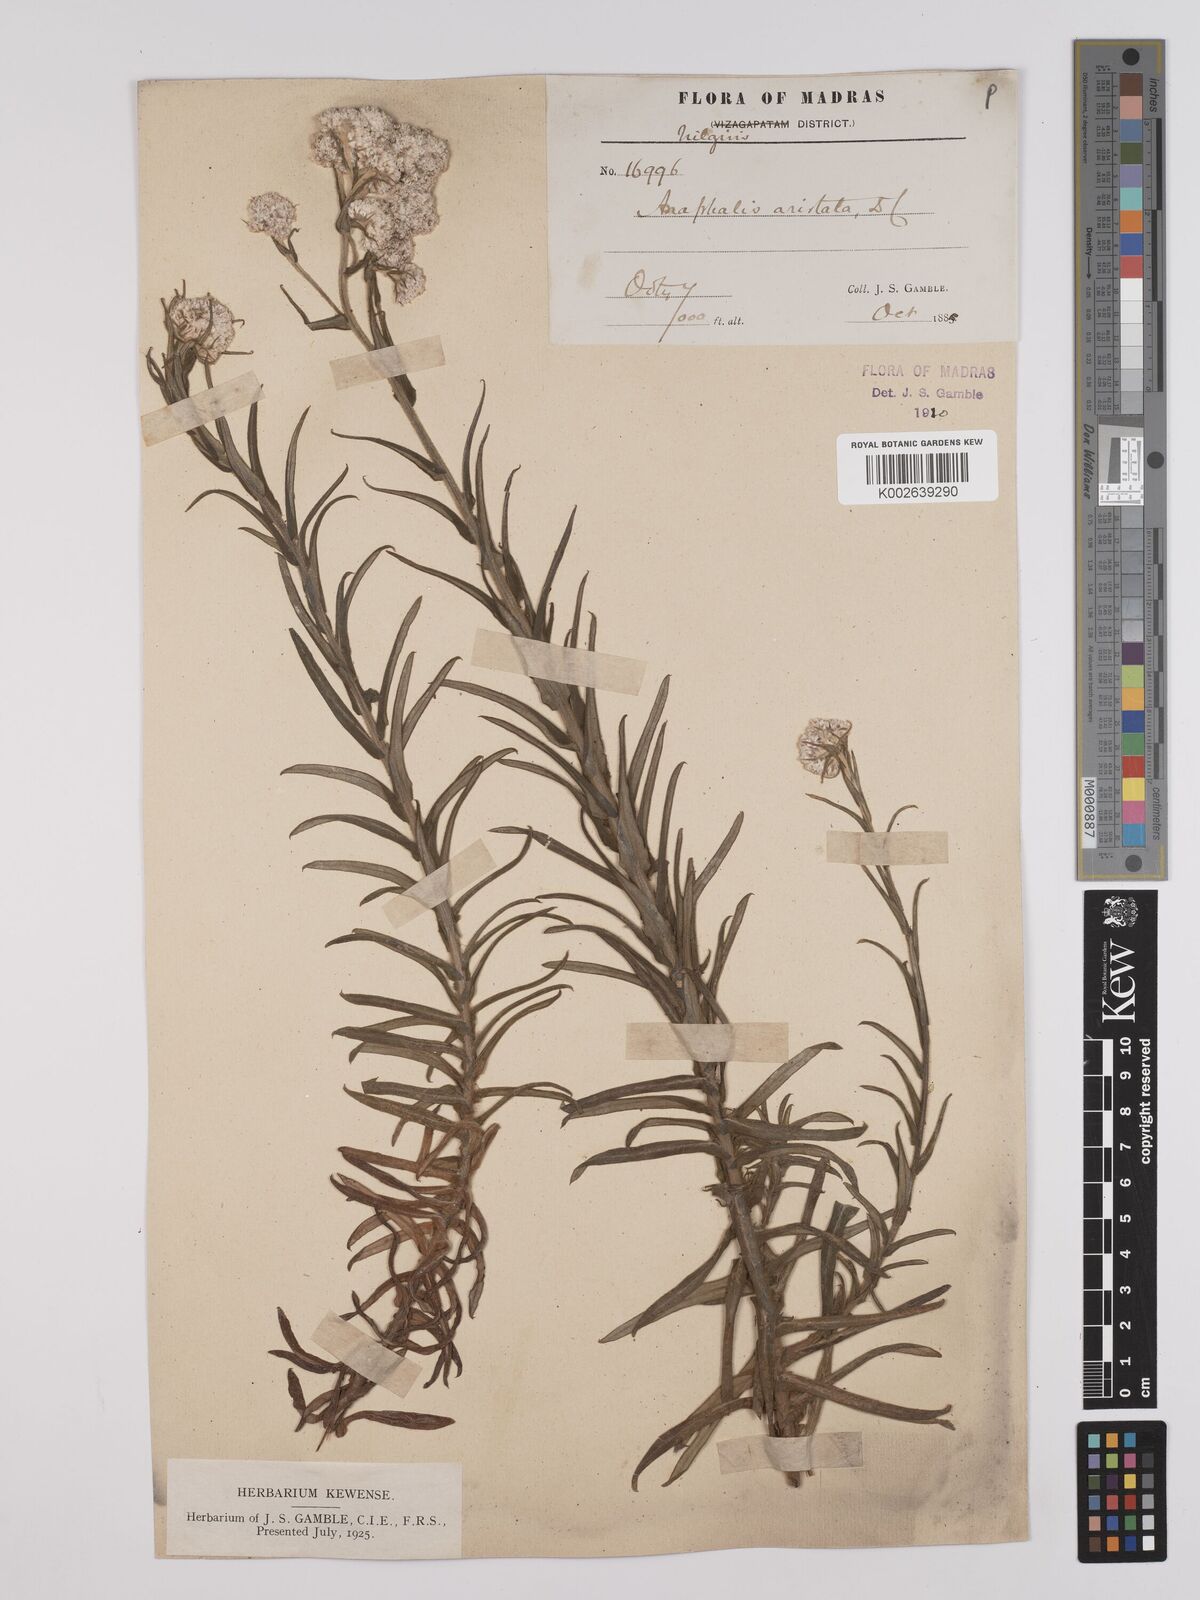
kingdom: Plantae
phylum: Tracheophyta
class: Magnoliopsida
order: Asterales
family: Asteraceae
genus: Anaphalis
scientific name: Anaphalis aristata
